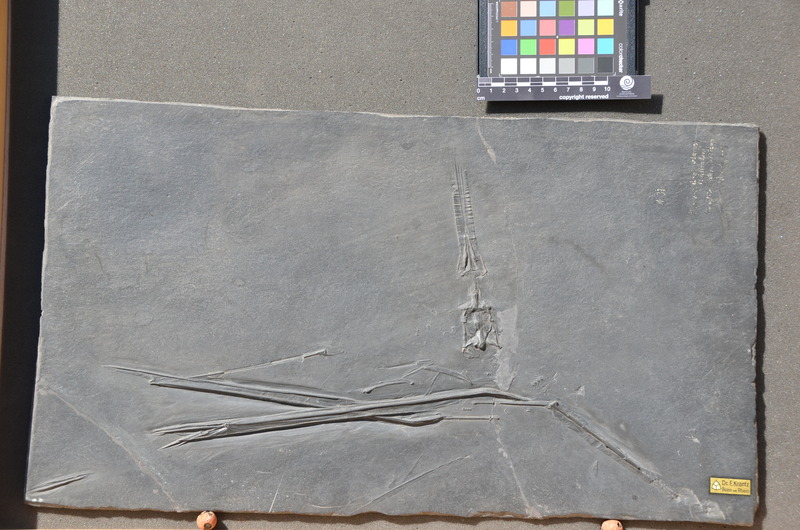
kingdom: Animalia
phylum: Chordata
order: Syngnathiformes
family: Fistulariidae
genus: Fistularia
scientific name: Fistularia koenigii
